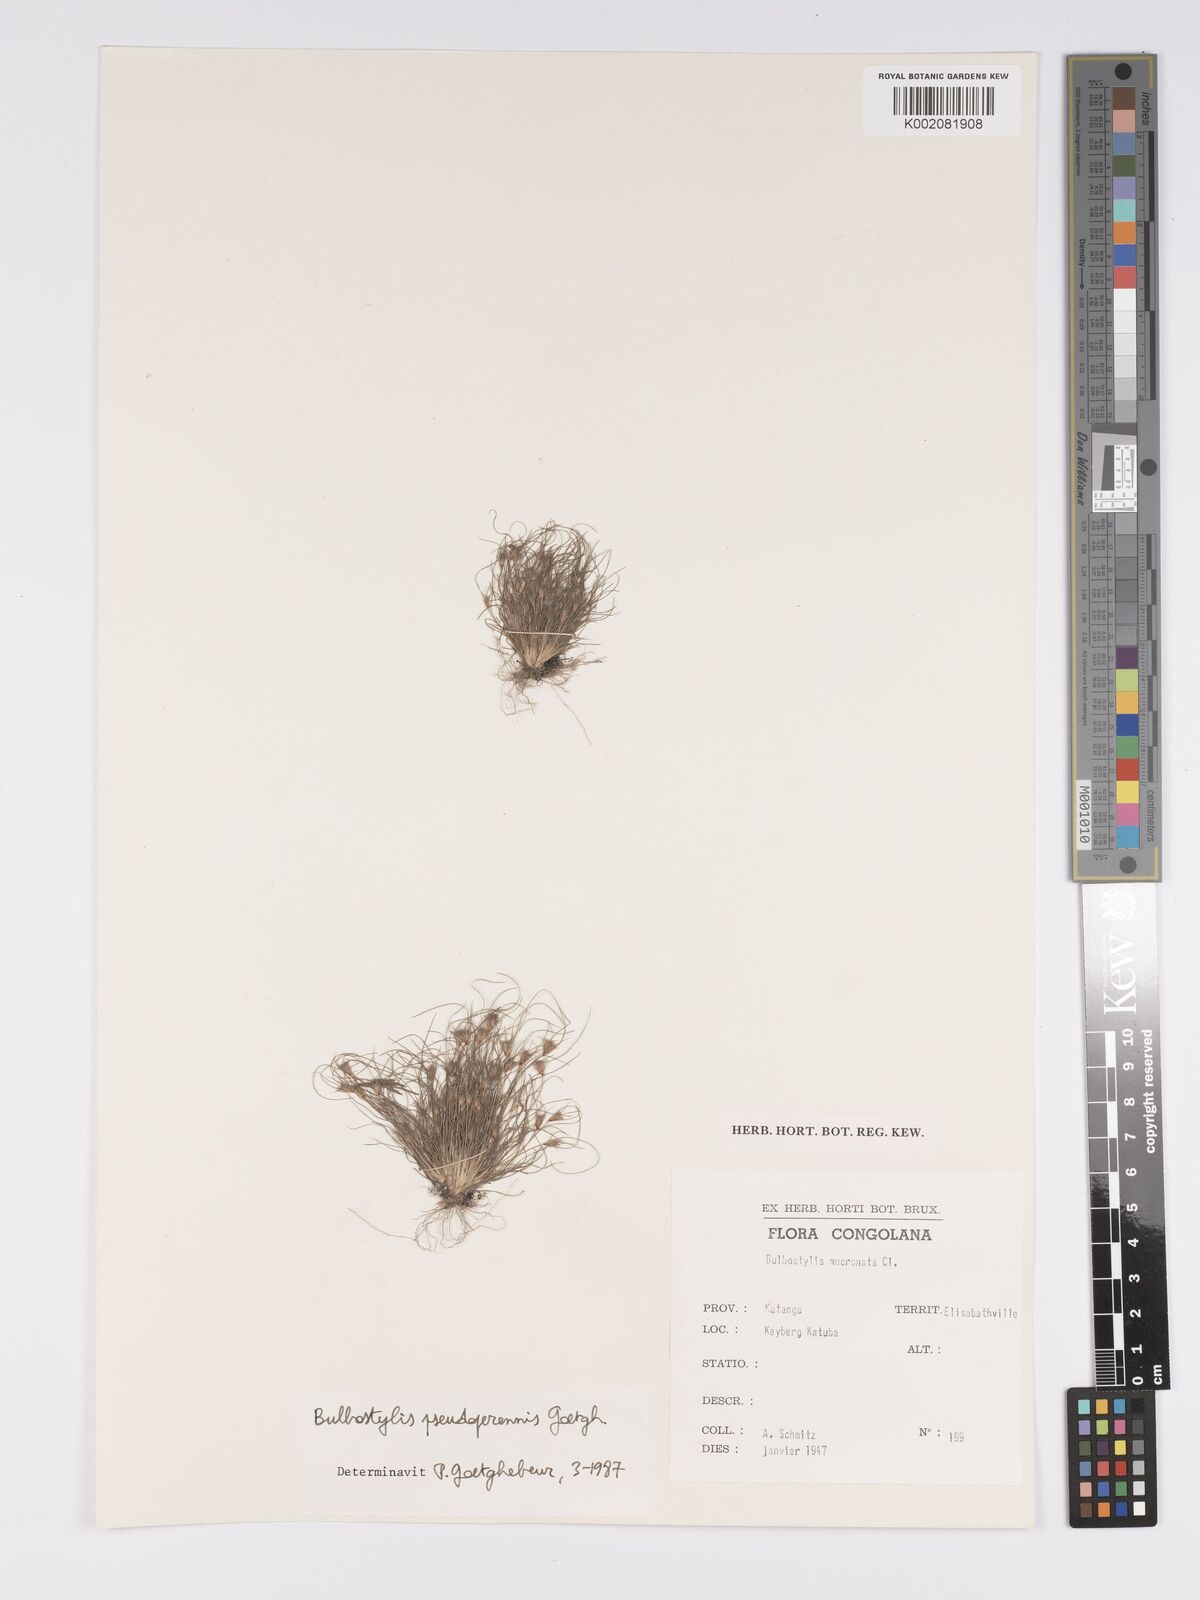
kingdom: Plantae
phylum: Tracheophyta
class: Liliopsida
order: Poales
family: Cyperaceae
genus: Bulbostylis
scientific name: Bulbostylis abbreviata
